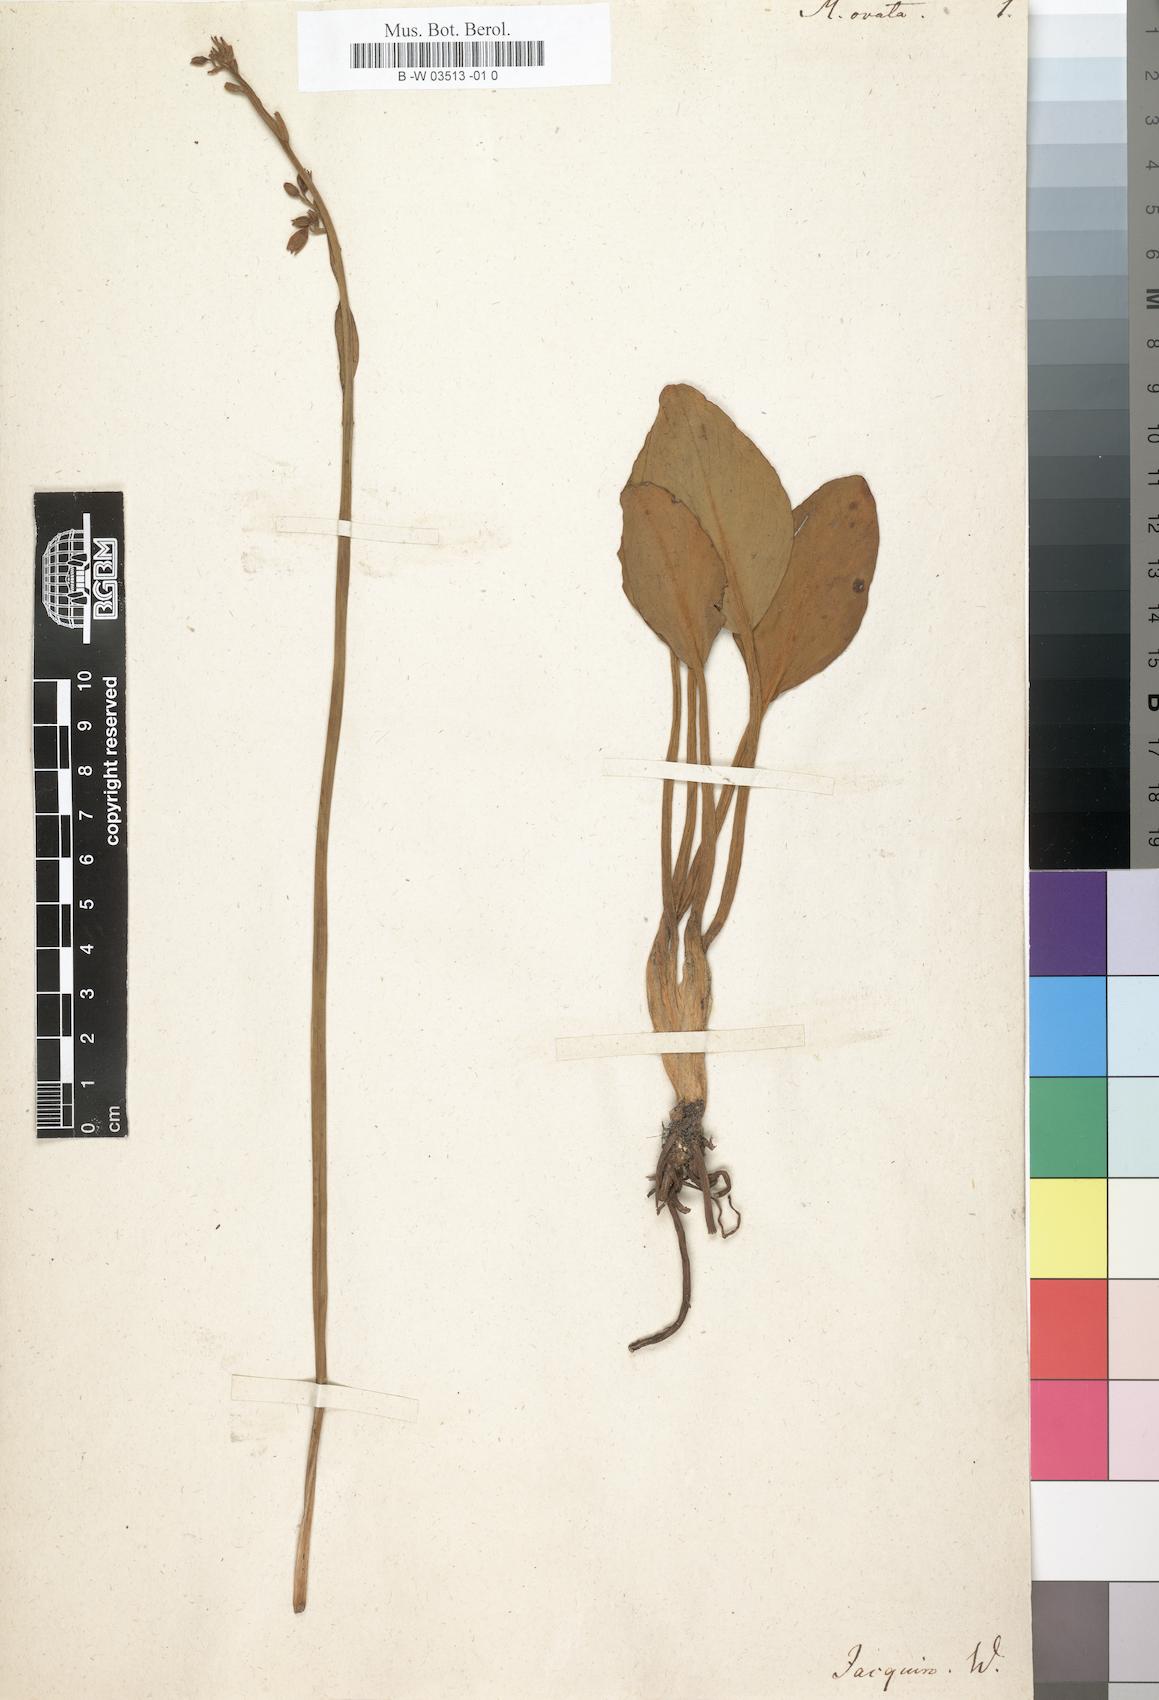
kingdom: Plantae
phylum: Tracheophyta
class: Magnoliopsida
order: Asterales
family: Menyanthaceae
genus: Villarsia
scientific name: Villarsia capensis
